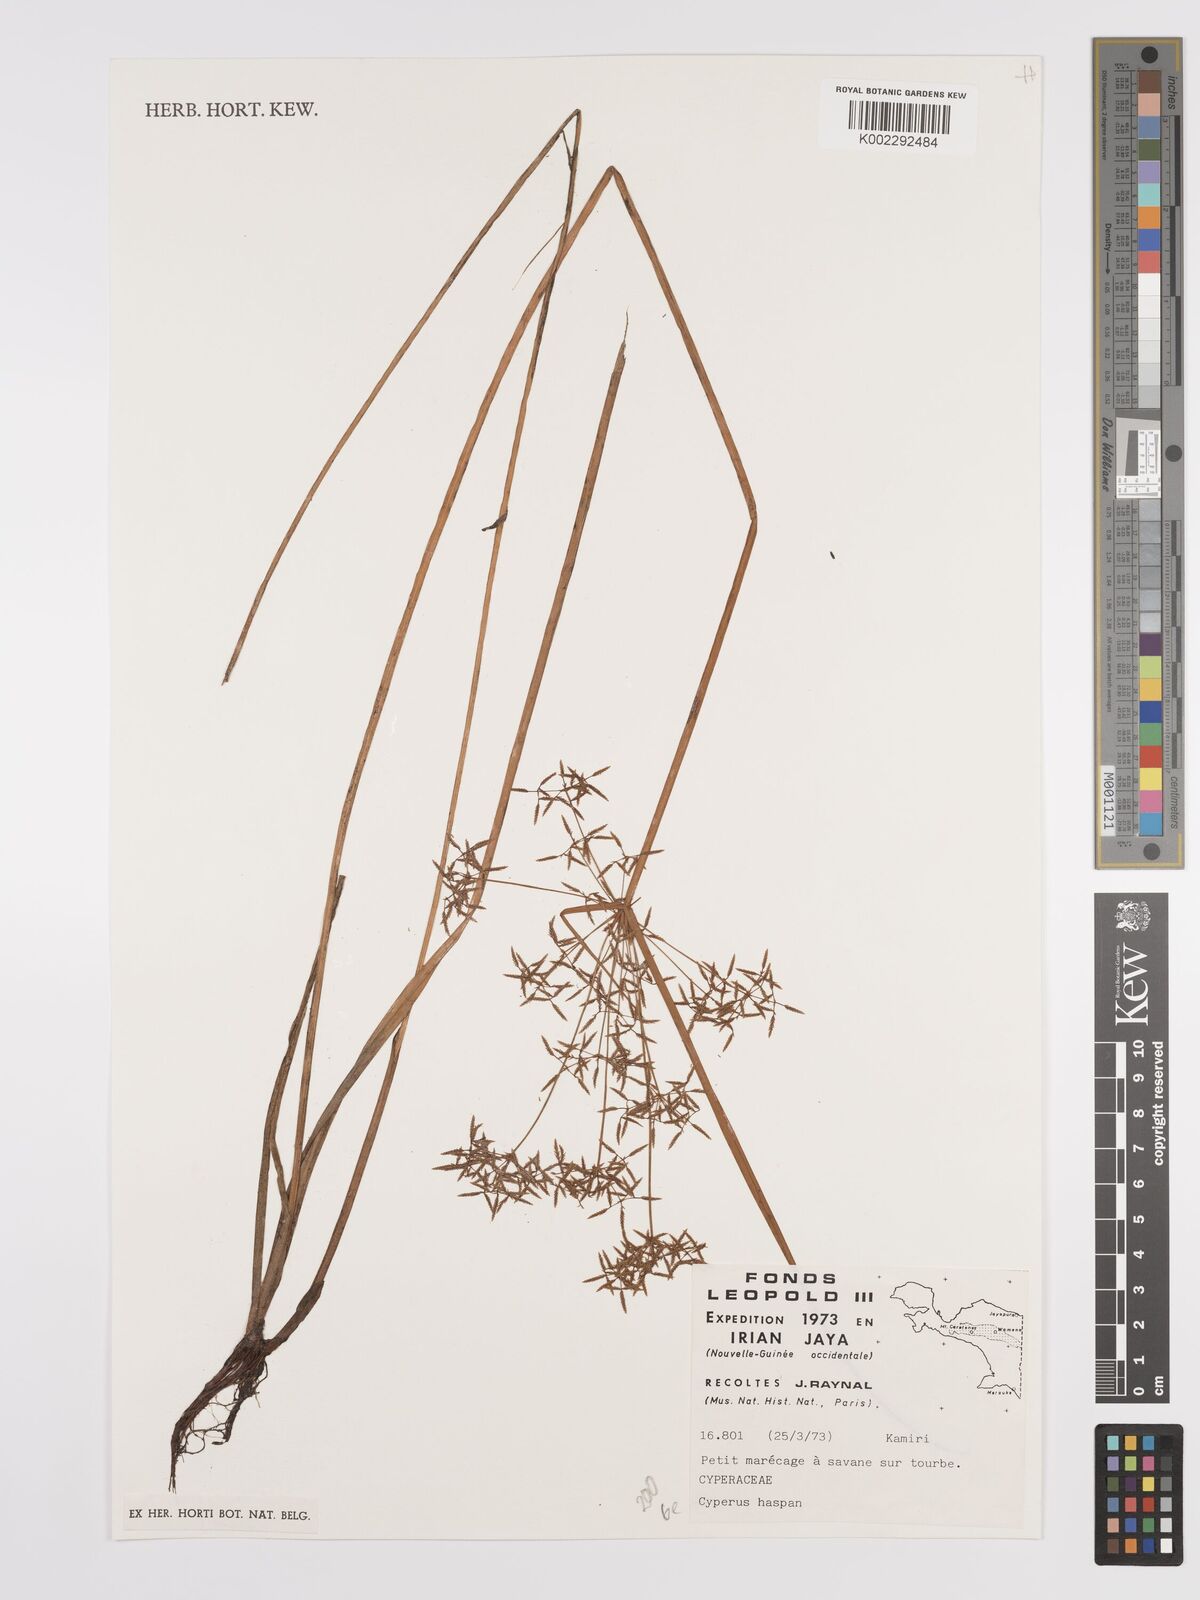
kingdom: Plantae
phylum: Tracheophyta
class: Liliopsida
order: Poales
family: Cyperaceae
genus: Cyperus
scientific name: Cyperus haspan
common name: Haspan flatsedge
